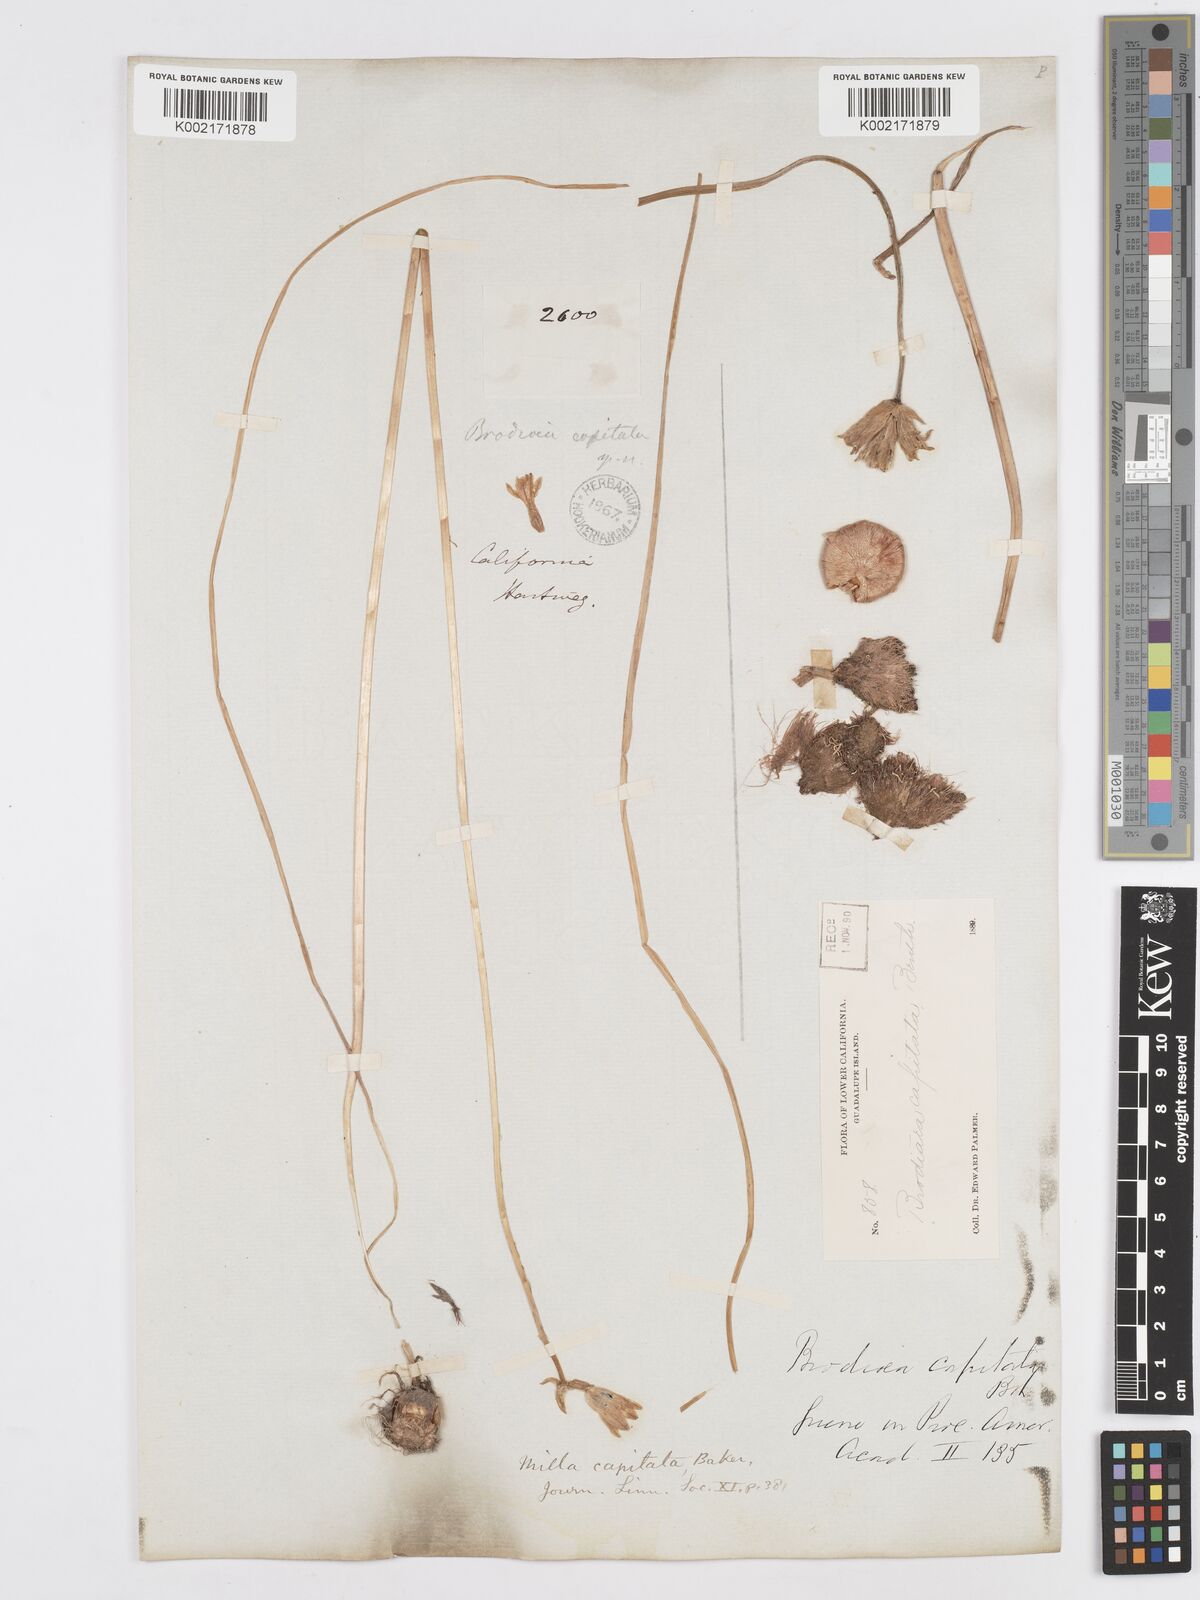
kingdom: Plantae
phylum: Tracheophyta
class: Liliopsida
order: Asparagales
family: Asparagaceae
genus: Dichelostemma
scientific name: Dichelostemma congestum
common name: Fork-tooth ookow
